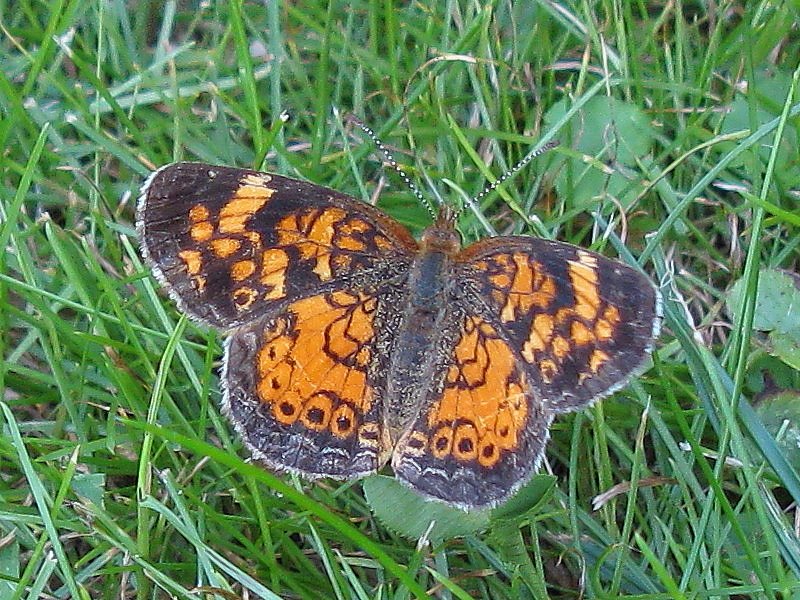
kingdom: Animalia
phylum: Arthropoda
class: Insecta
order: Lepidoptera
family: Nymphalidae
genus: Phyciodes
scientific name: Phyciodes tharos
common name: Pearl Crescent
